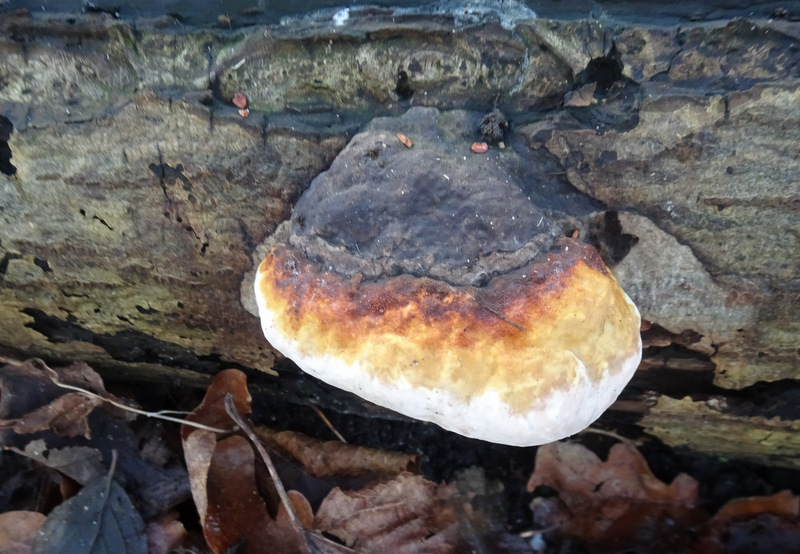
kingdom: Fungi
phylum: Basidiomycota
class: Agaricomycetes
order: Polyporales
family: Fomitopsidaceae
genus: Fomitopsis
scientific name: Fomitopsis pinicola
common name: randbæltet hovporesvamp
